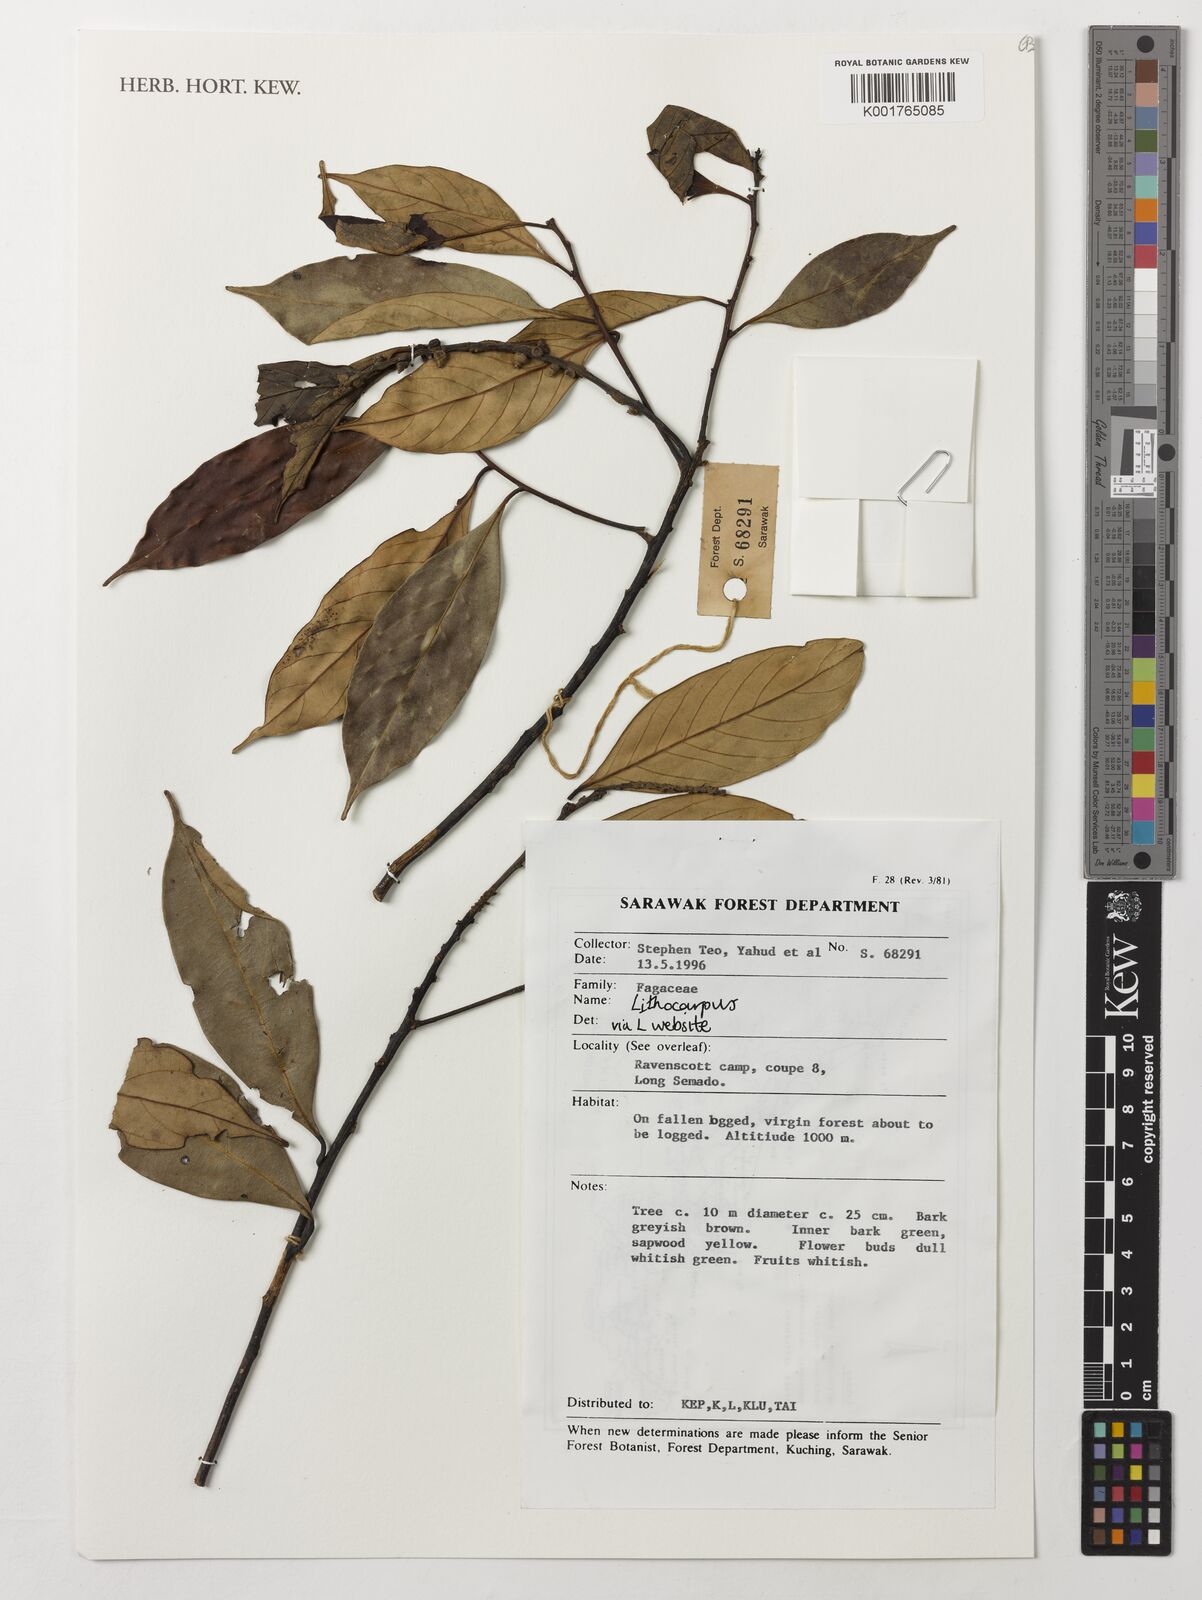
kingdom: Plantae
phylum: Tracheophyta
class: Magnoliopsida
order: Fagales
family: Fagaceae
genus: Lithocarpus
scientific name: Lithocarpus
